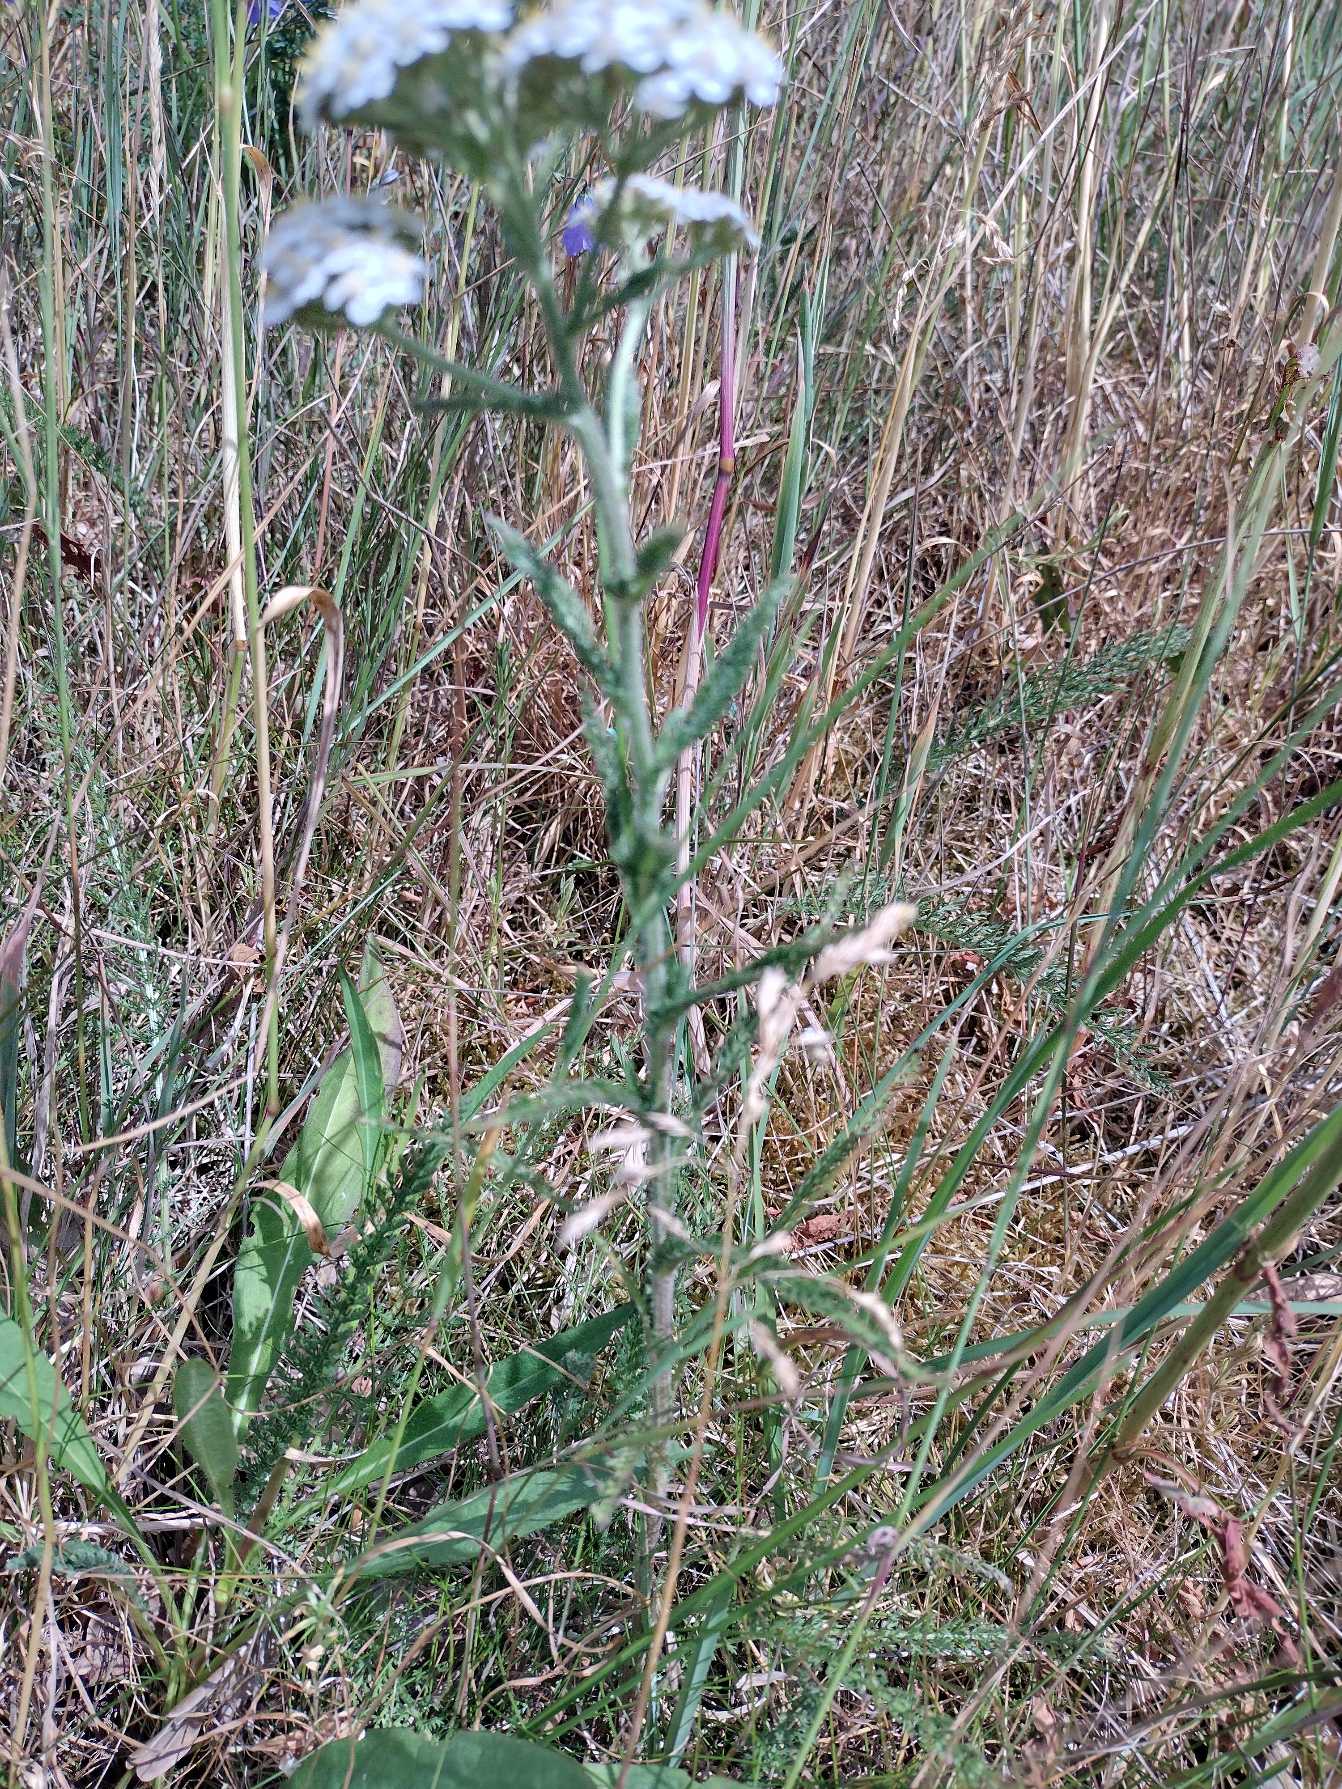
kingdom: Plantae
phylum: Tracheophyta
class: Magnoliopsida
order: Asterales
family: Asteraceae
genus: Achillea
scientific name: Achillea millefolium
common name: Almindelig røllike
